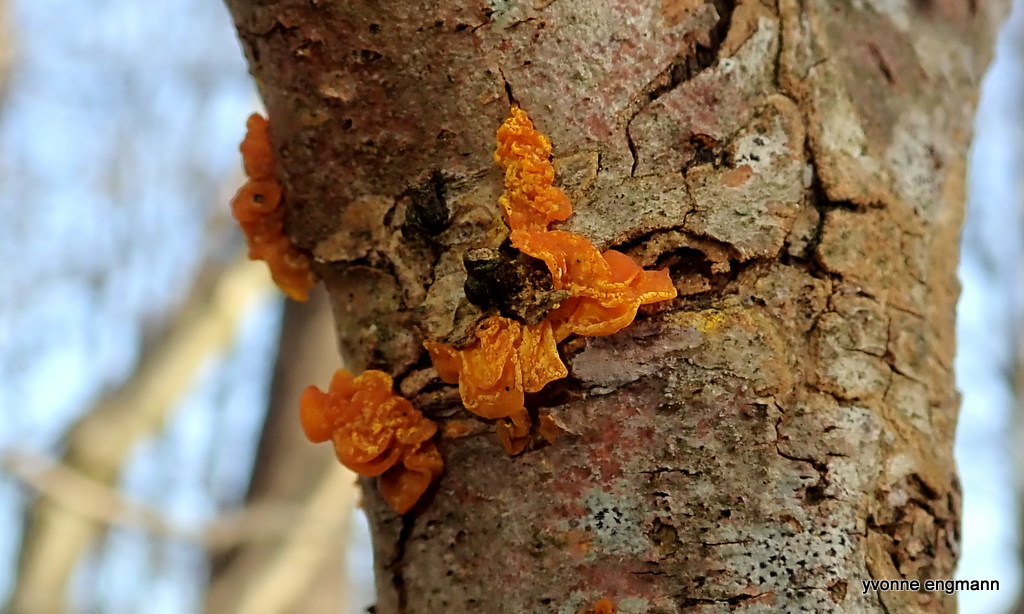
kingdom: Fungi
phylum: Basidiomycota
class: Tremellomycetes
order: Tremellales
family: Tremellaceae
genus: Tremella
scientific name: Tremella mesenterica
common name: gul bævresvamp
